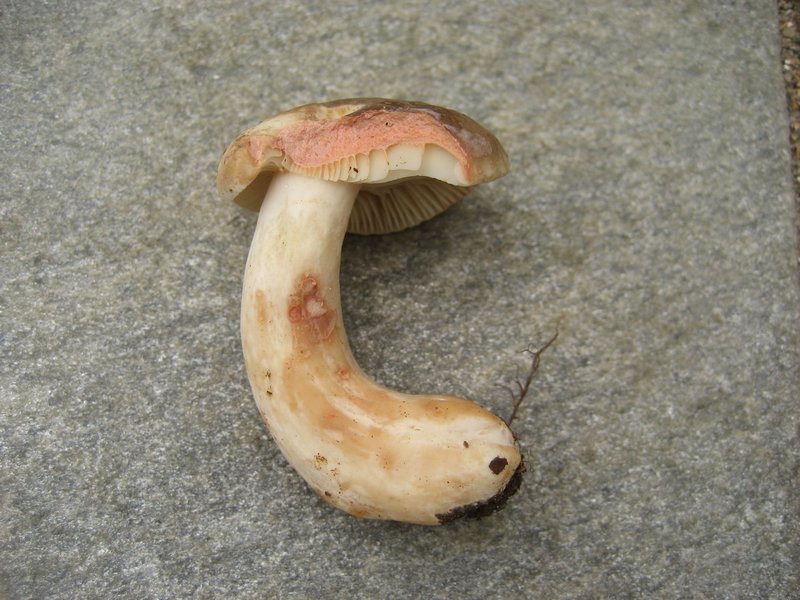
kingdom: Fungi
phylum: Basidiomycota
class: Agaricomycetes
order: Russulales
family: Russulaceae
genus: Lactarius
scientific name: Lactarius pterosporus
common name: vingesporet mælkehat
